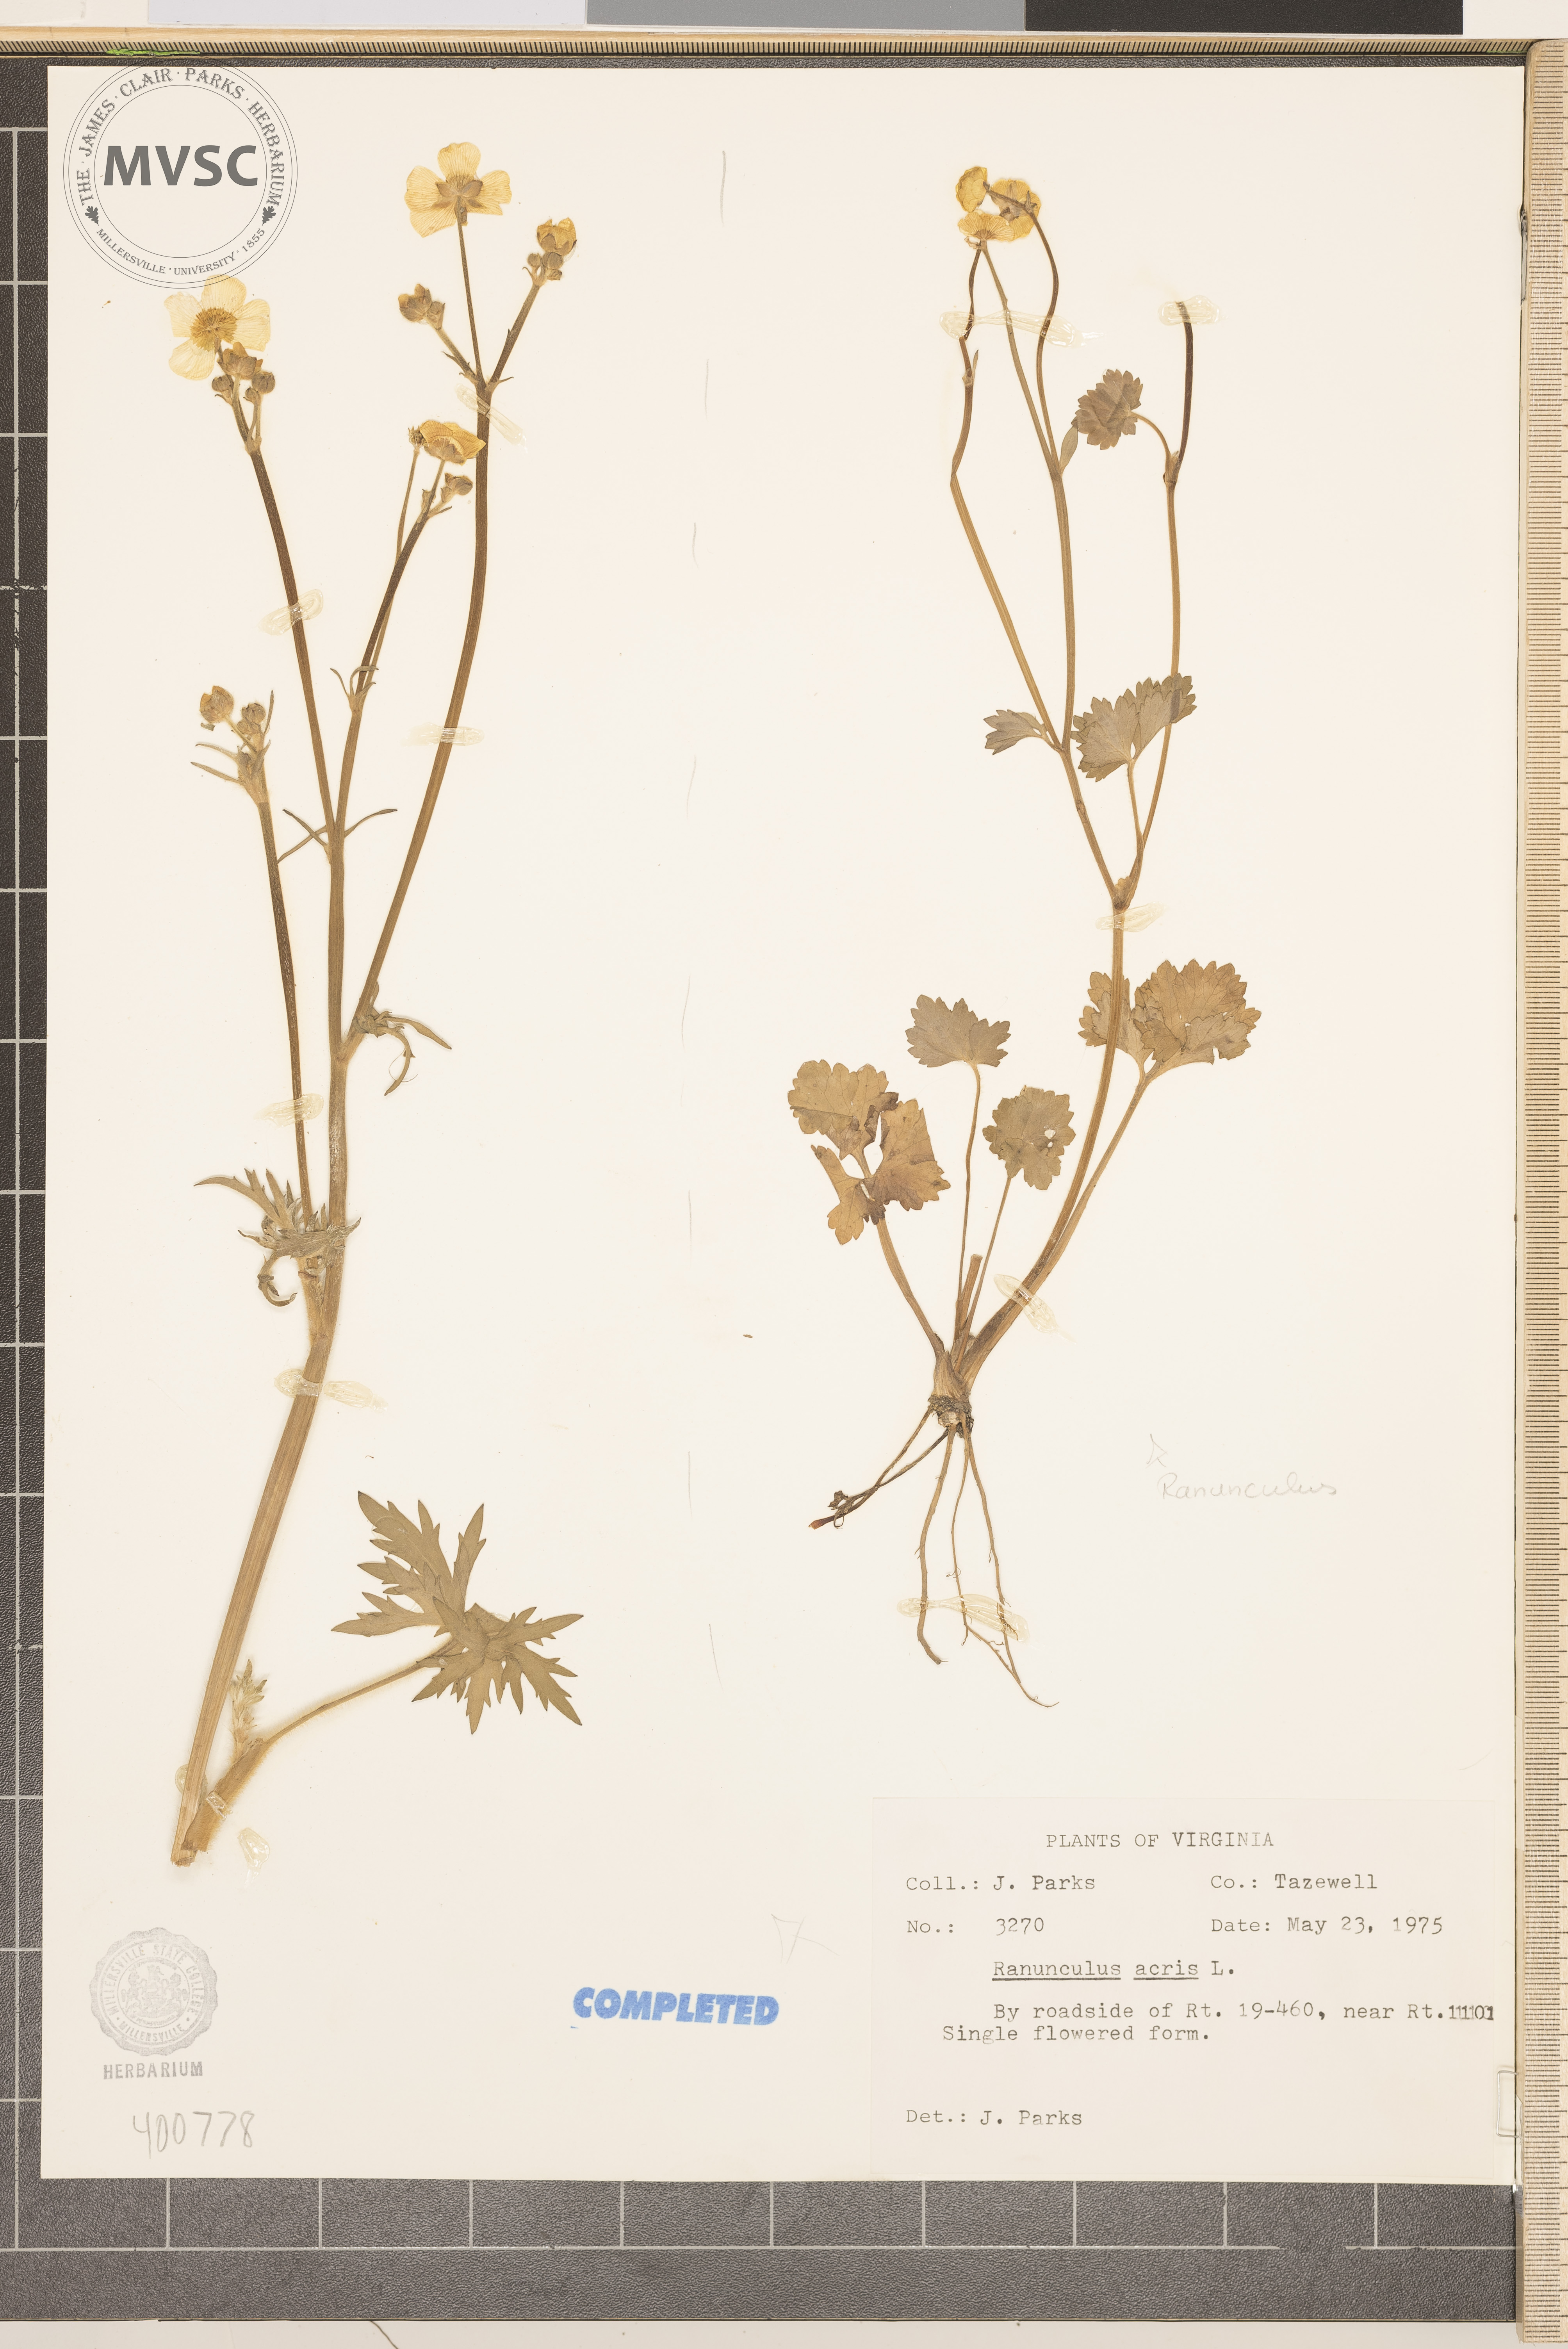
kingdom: Plantae
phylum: Tracheophyta
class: Magnoliopsida
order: Ranunculales
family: Ranunculaceae
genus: Ranunculus
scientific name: Ranunculus acris
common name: buttercup
